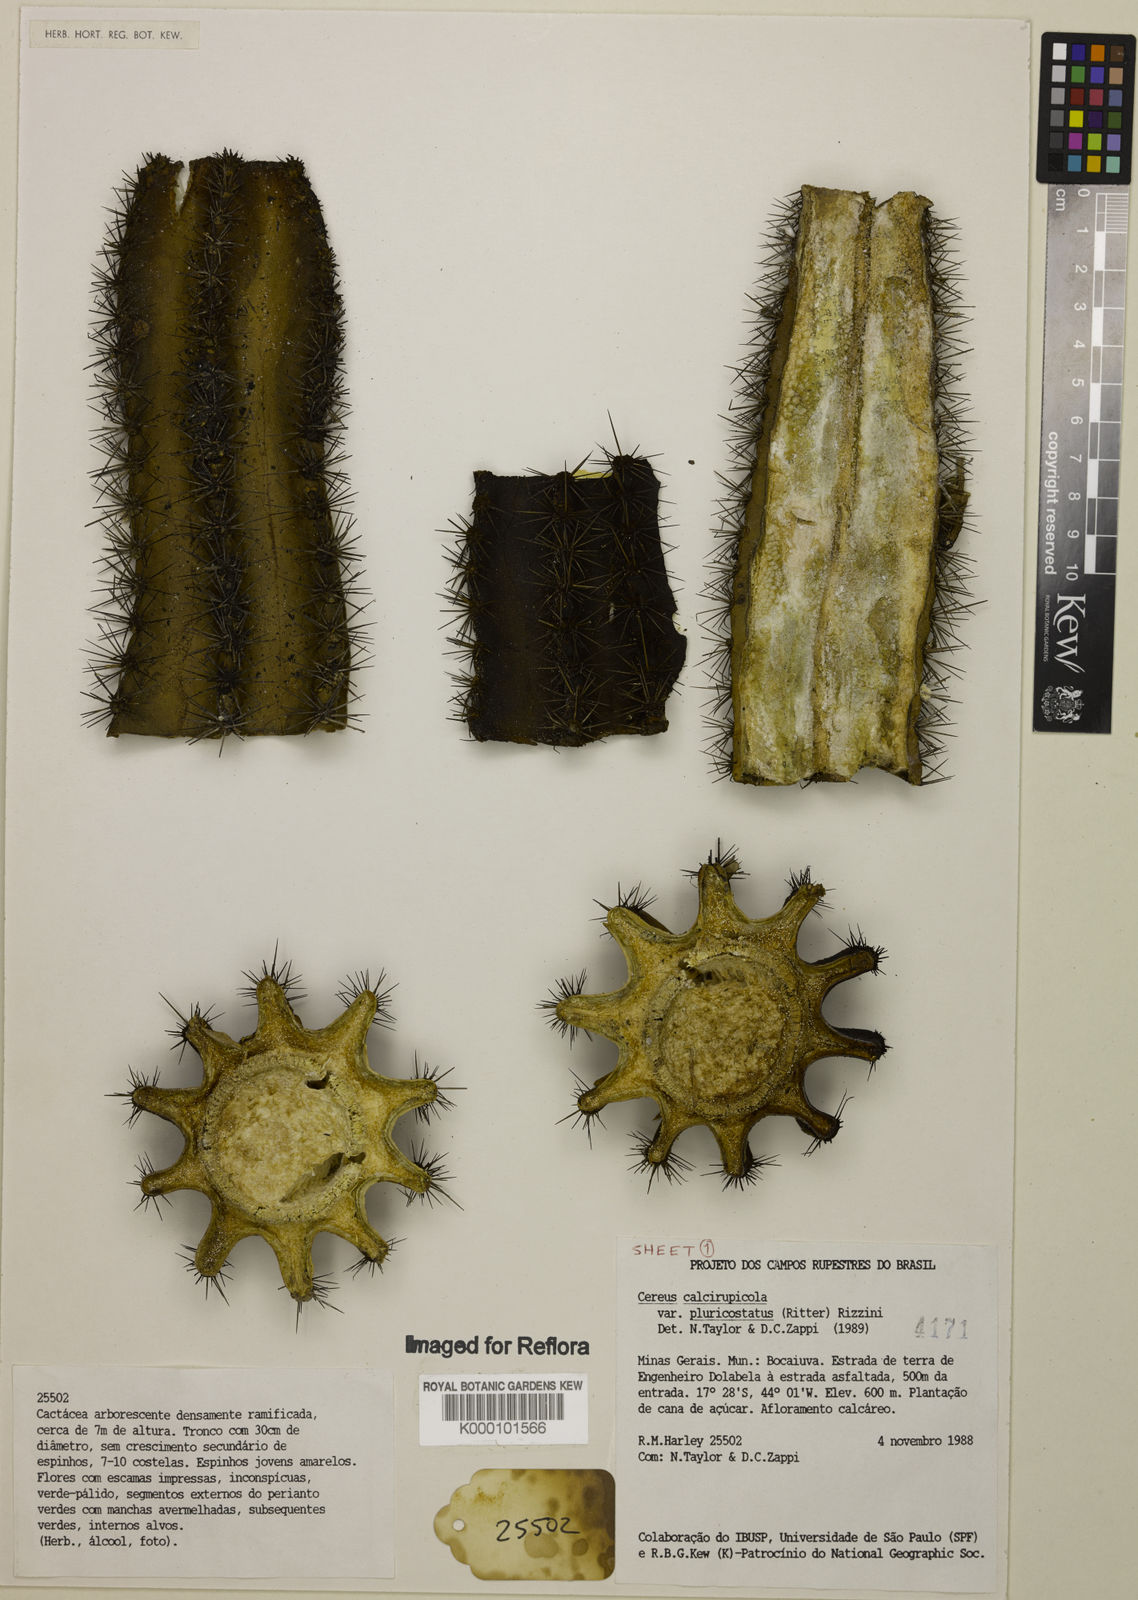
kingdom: Plantae
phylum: Tracheophyta
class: Magnoliopsida
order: Caryophyllales
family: Cactaceae
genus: Cereus
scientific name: Cereus jamacaru
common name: Queen-of-the-night
